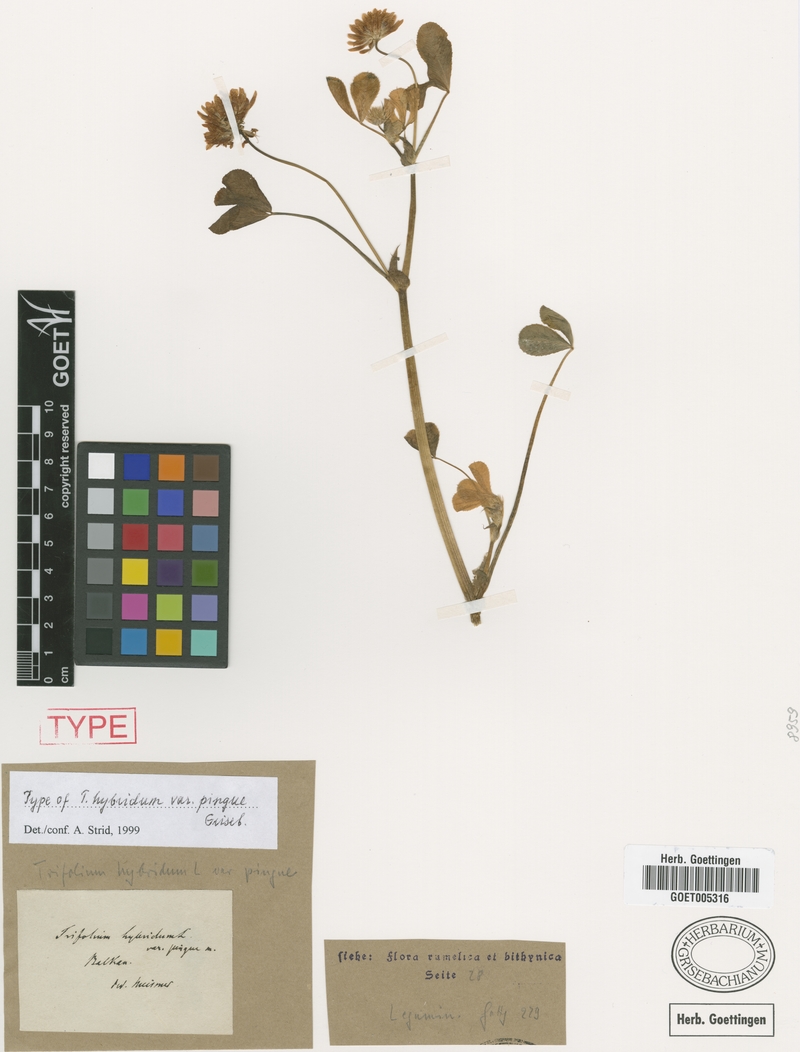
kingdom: Plantae
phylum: Tracheophyta
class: Magnoliopsida
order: Fabales
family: Fabaceae
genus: Trifolium
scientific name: Trifolium hybridum
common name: Alsike clover
